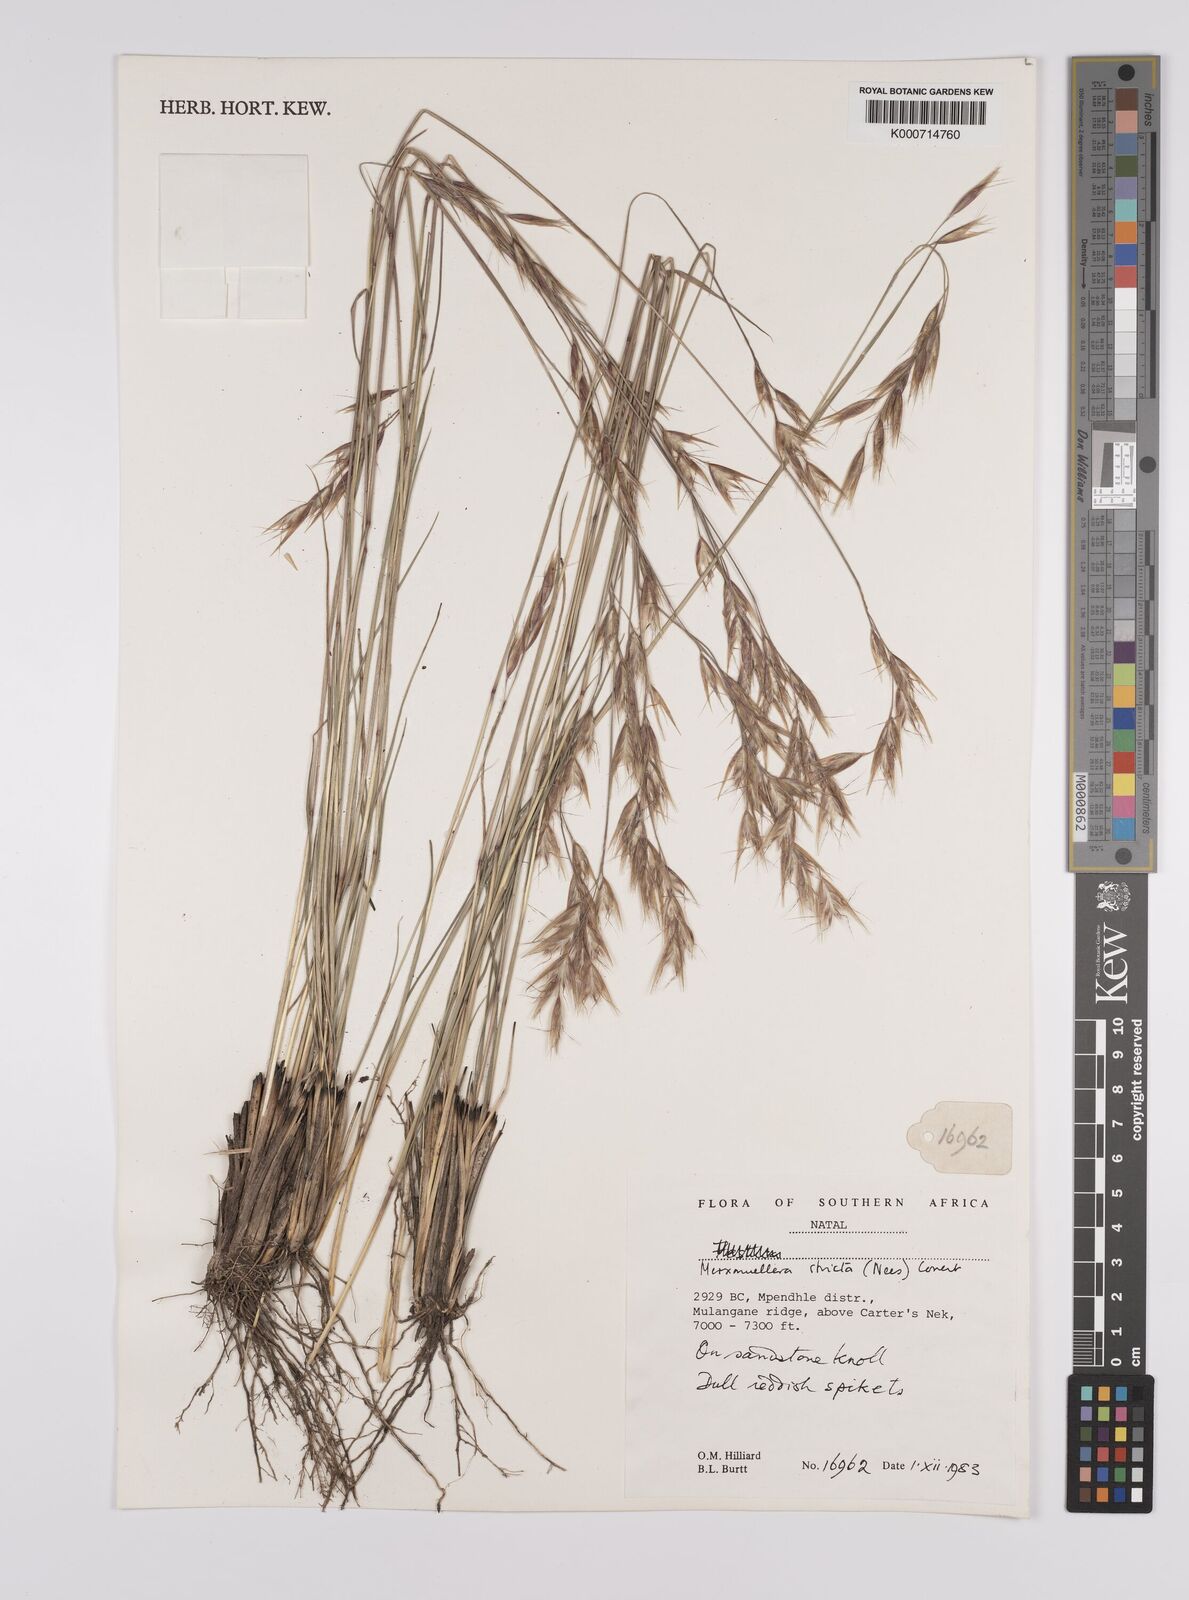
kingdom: Plantae
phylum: Tracheophyta
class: Liliopsida
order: Poales
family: Poaceae
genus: Rytidosperma
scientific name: Rytidosperma
